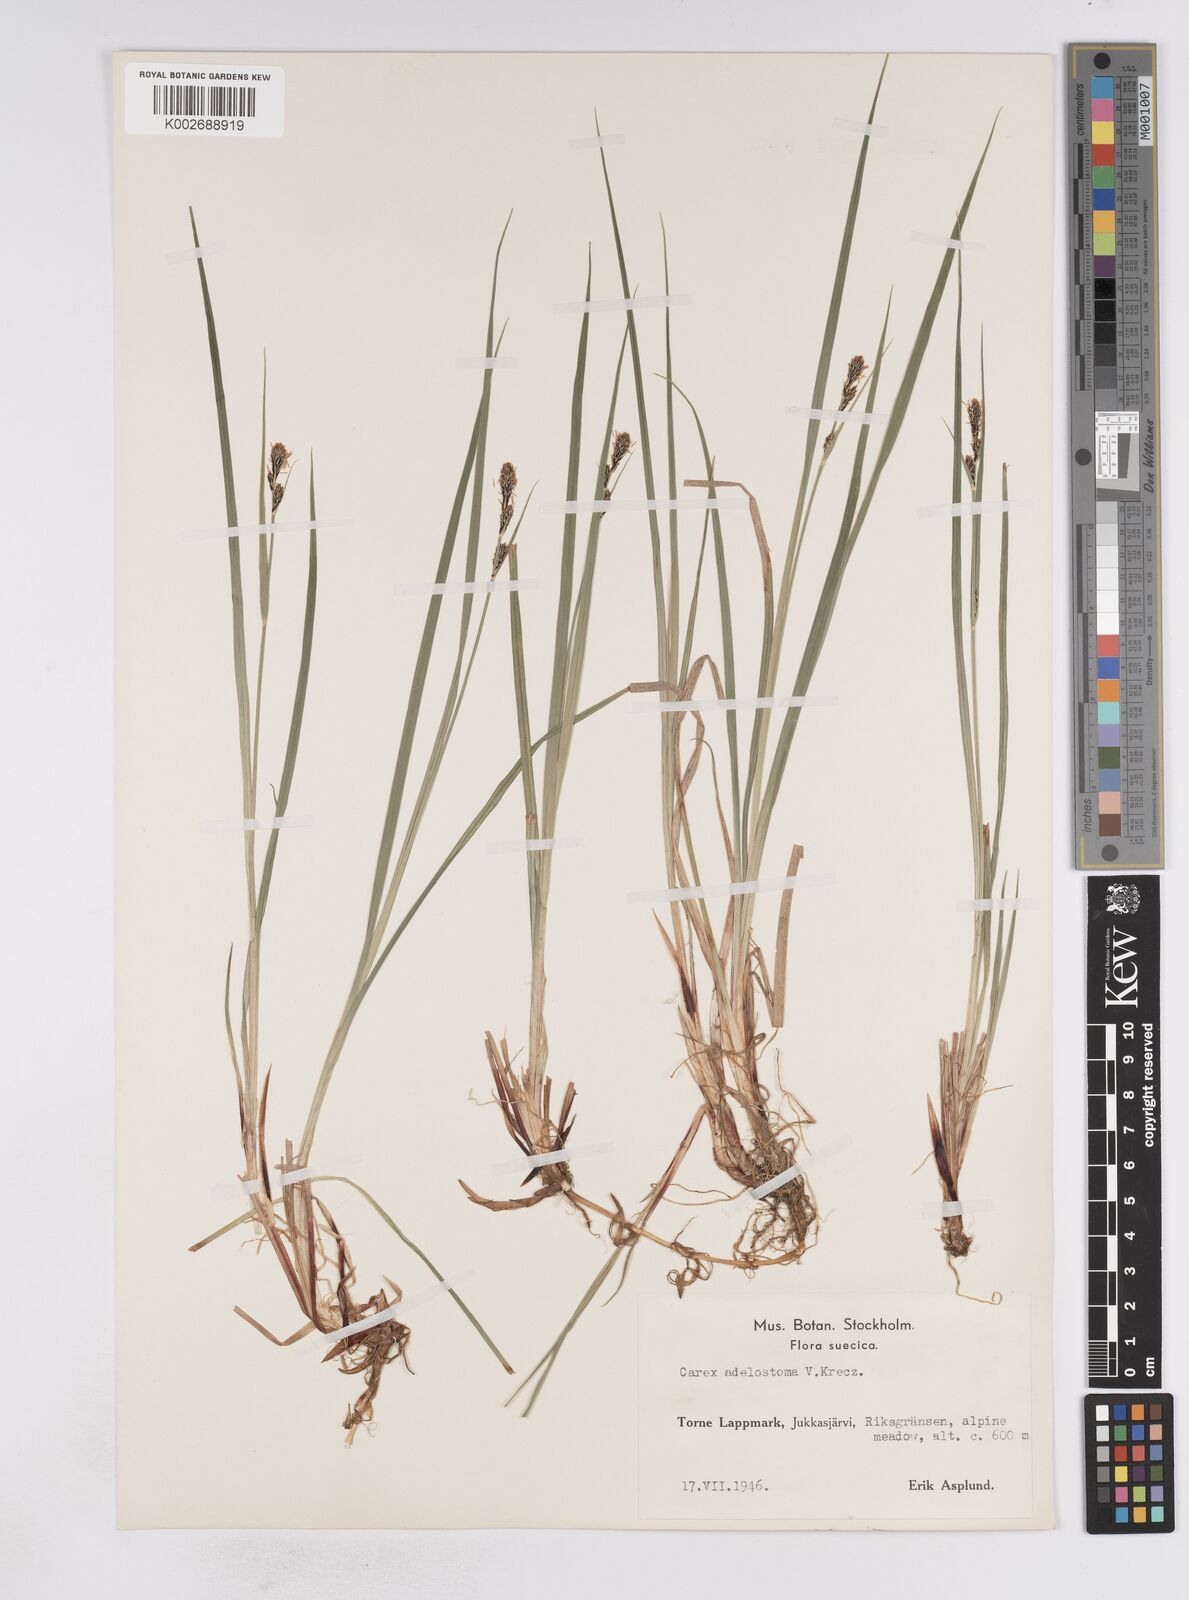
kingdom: Plantae
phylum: Tracheophyta
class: Liliopsida
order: Poales
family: Cyperaceae
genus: Carex
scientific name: Carex adelostoma
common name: Circumpolar sedge
